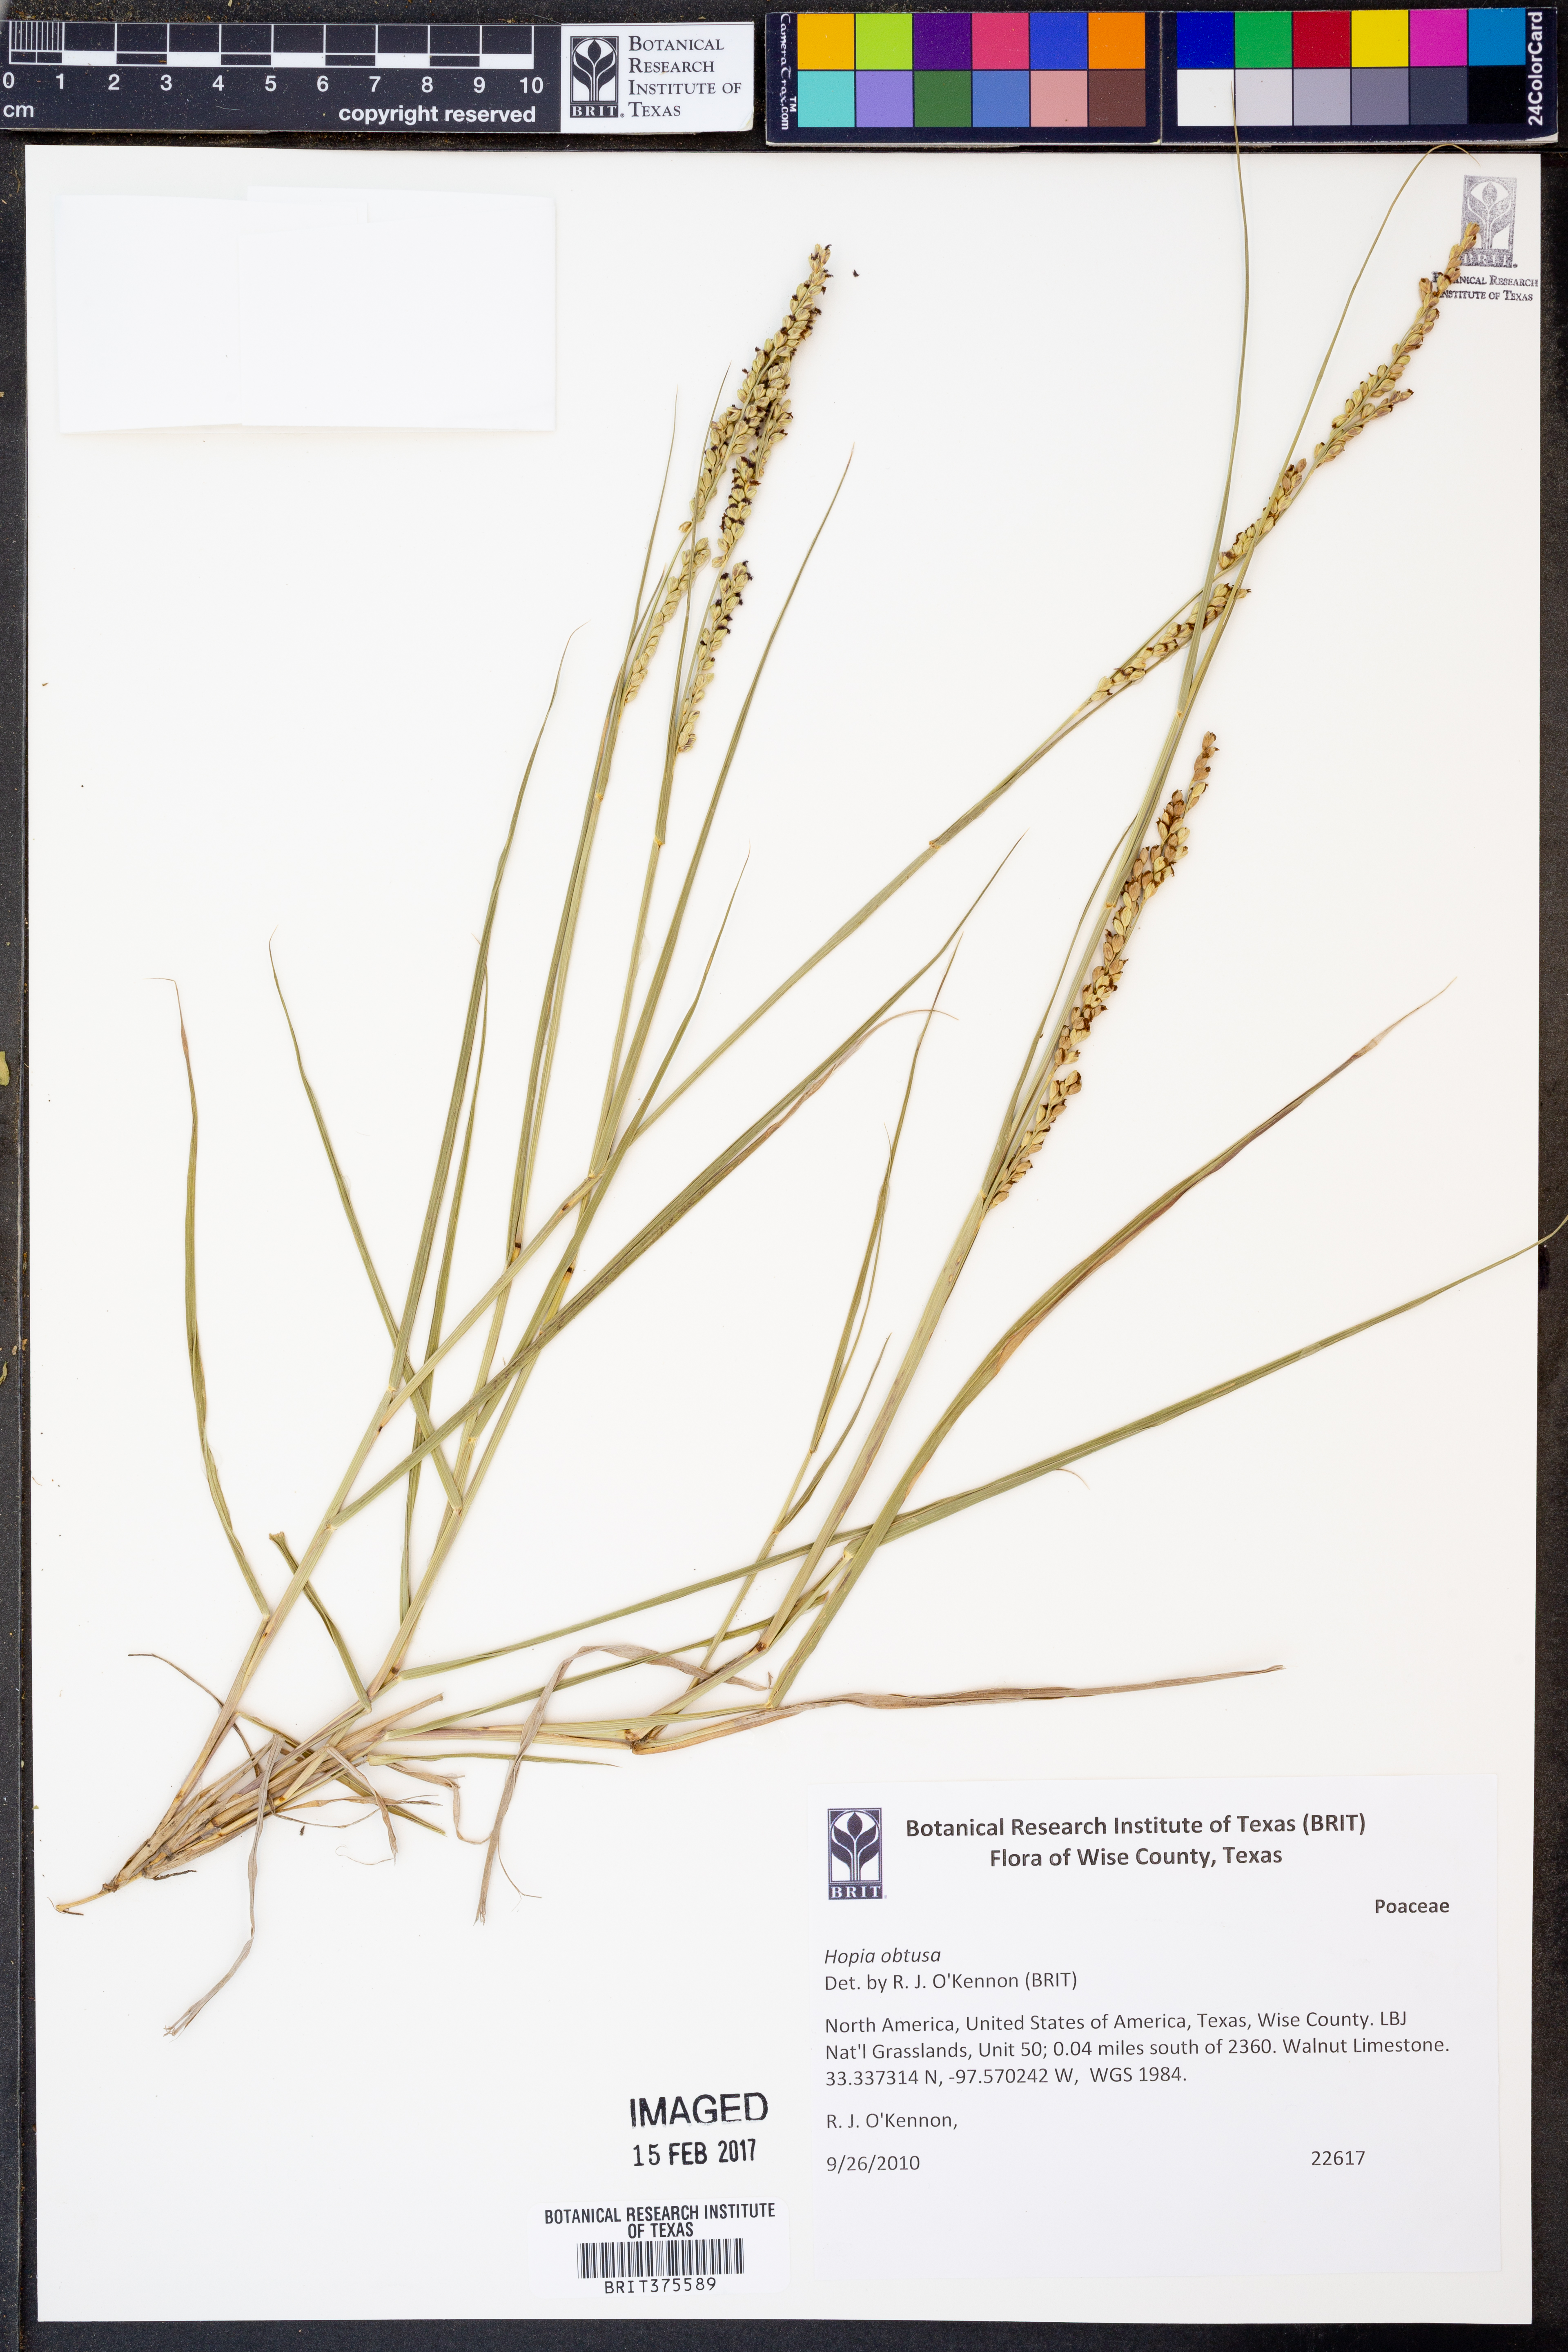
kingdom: Plantae
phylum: Tracheophyta
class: Liliopsida
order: Poales
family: Poaceae
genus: Hopia
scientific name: Hopia obtusa
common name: Vine-mesquite
